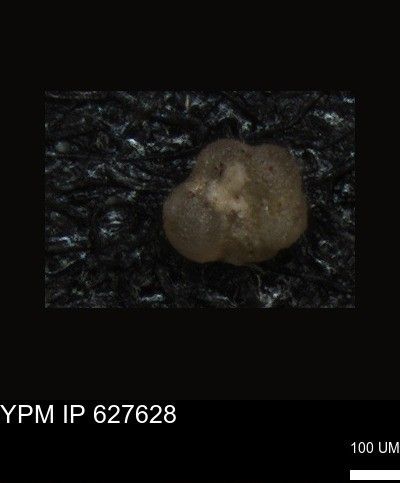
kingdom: Chromista
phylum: Foraminifera
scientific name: Foraminifera
